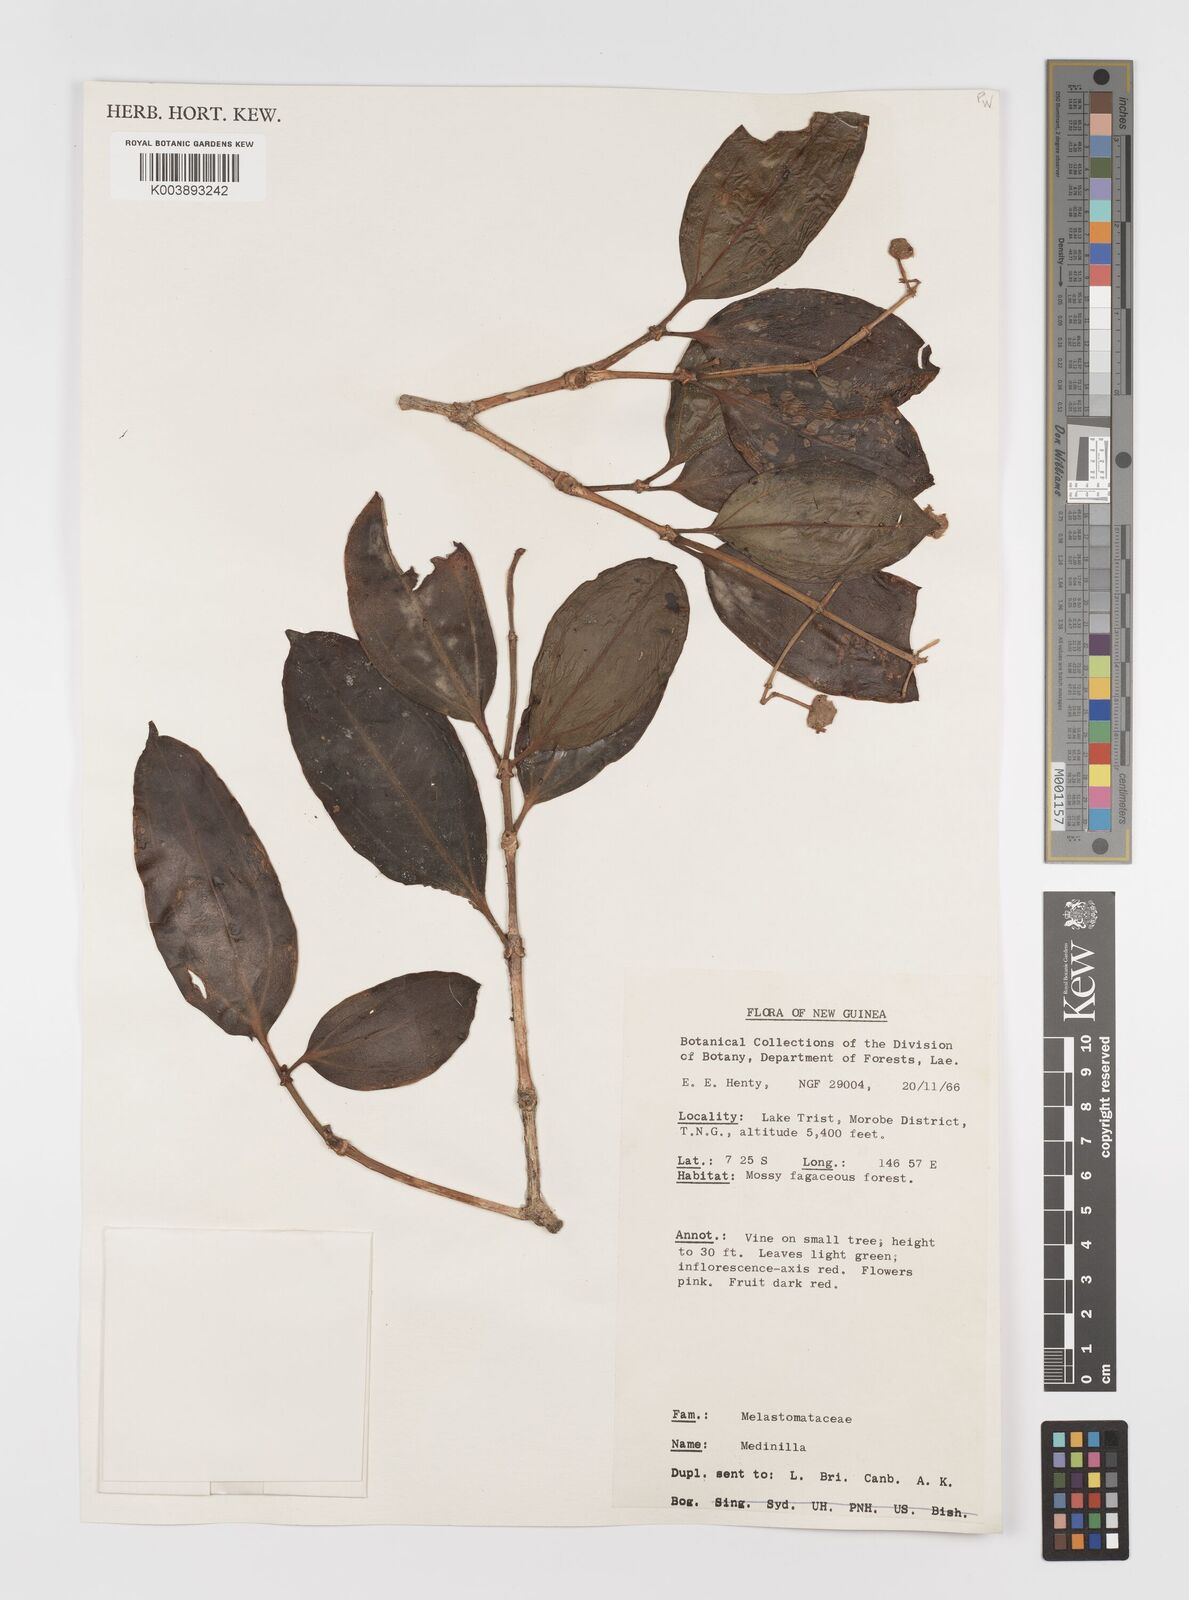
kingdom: Plantae
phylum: Tracheophyta
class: Magnoliopsida
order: Myrtales
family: Melastomataceae
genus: Medinilla
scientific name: Medinilla
